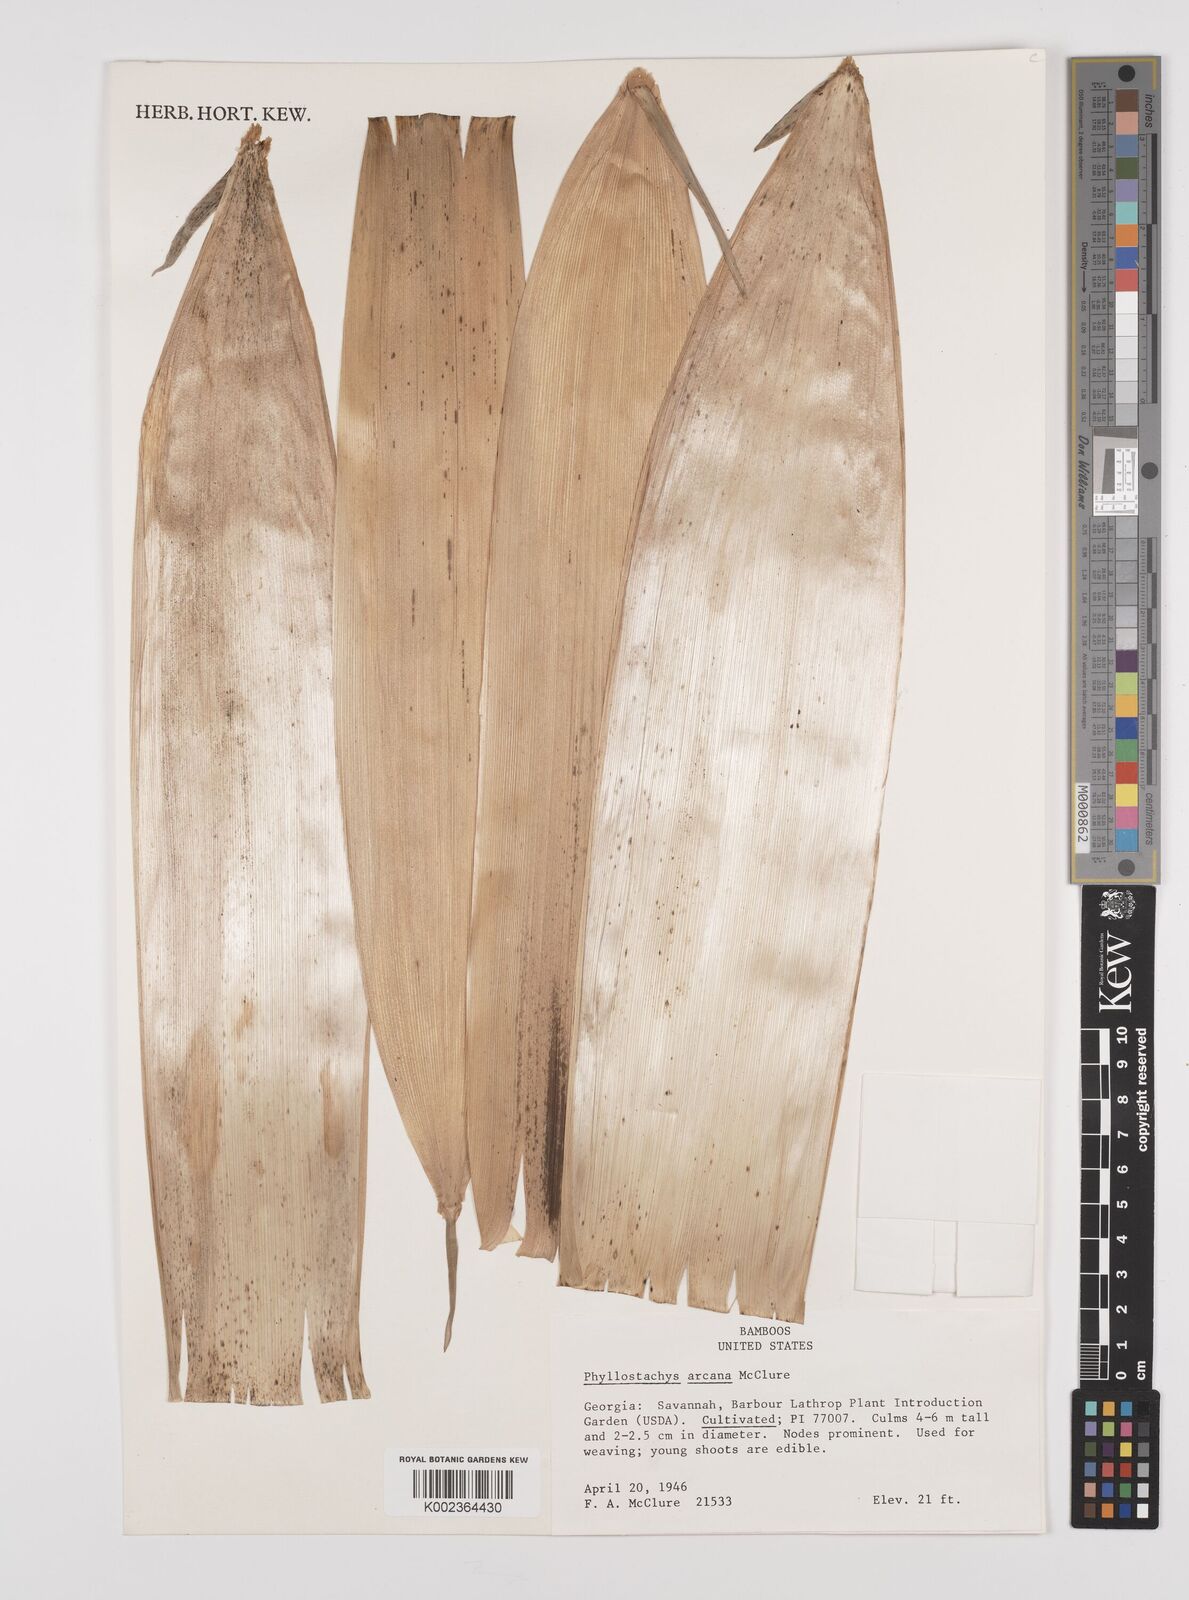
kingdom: Plantae
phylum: Tracheophyta
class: Liliopsida
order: Poales
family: Poaceae
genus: Phyllostachys
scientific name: Phyllostachys arcana
